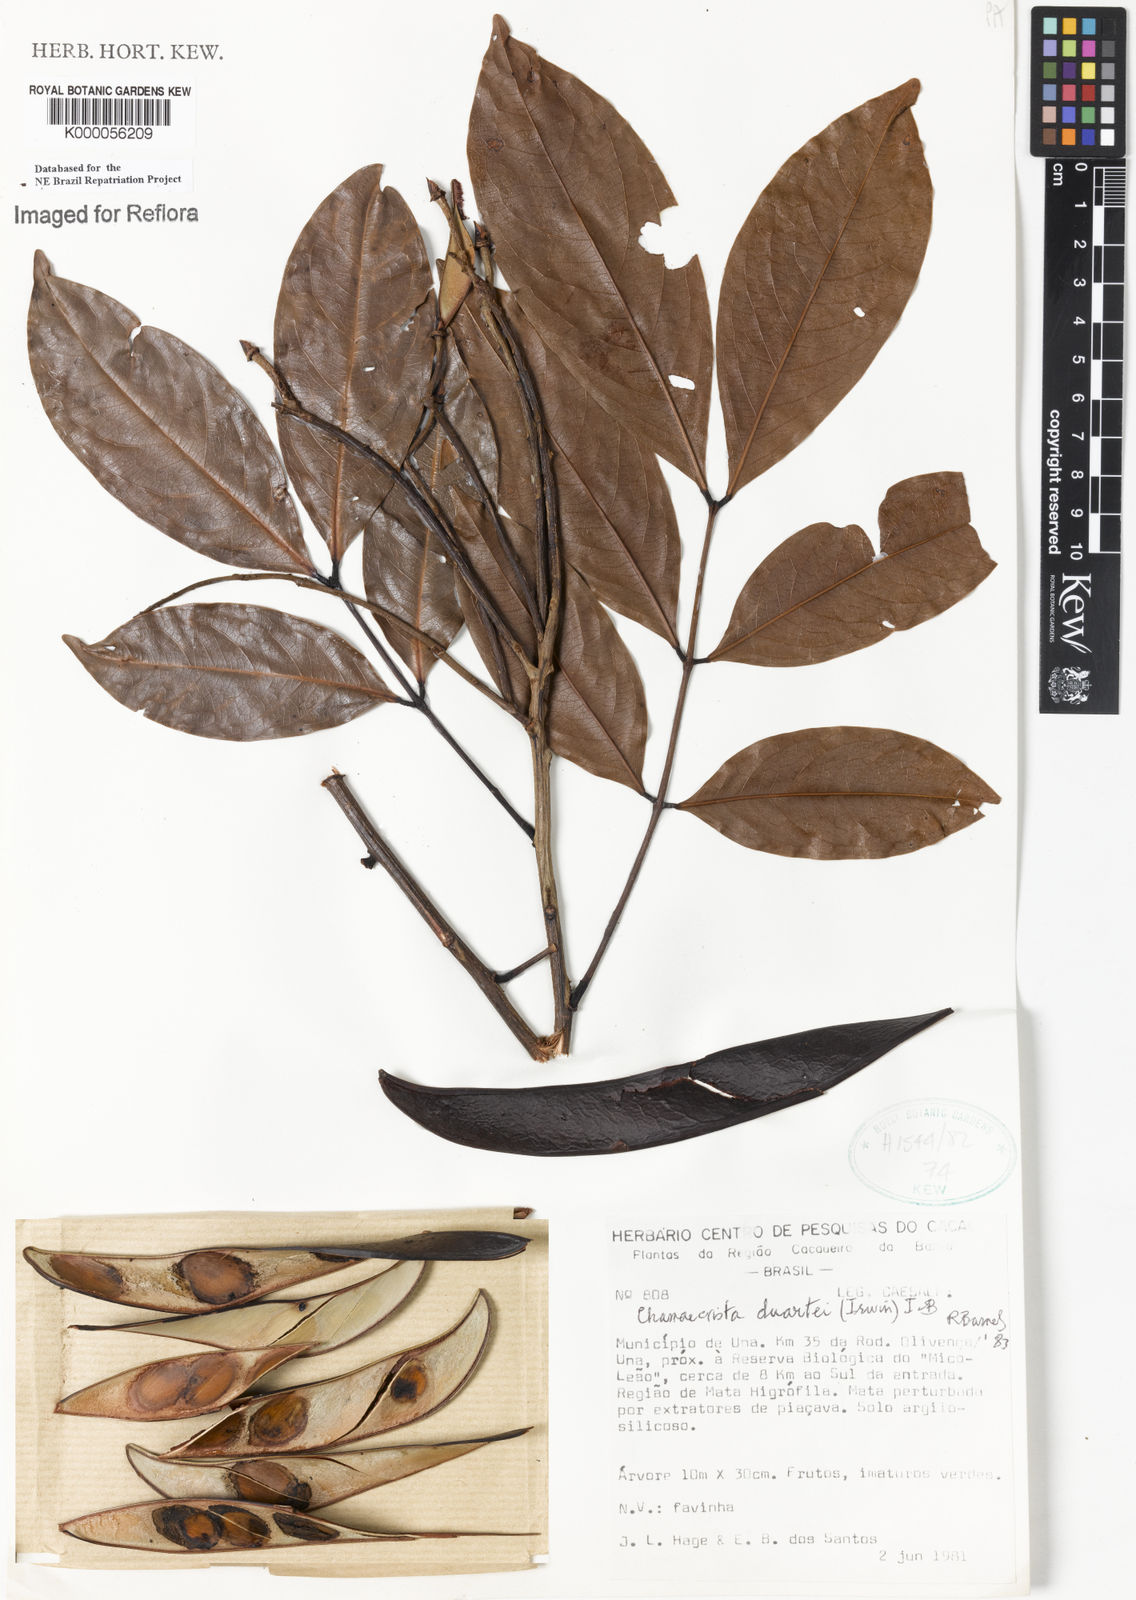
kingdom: Plantae
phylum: Tracheophyta
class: Magnoliopsida
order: Fabales
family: Fabaceae
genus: Chamaecrista
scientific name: Chamaecrista duartei
